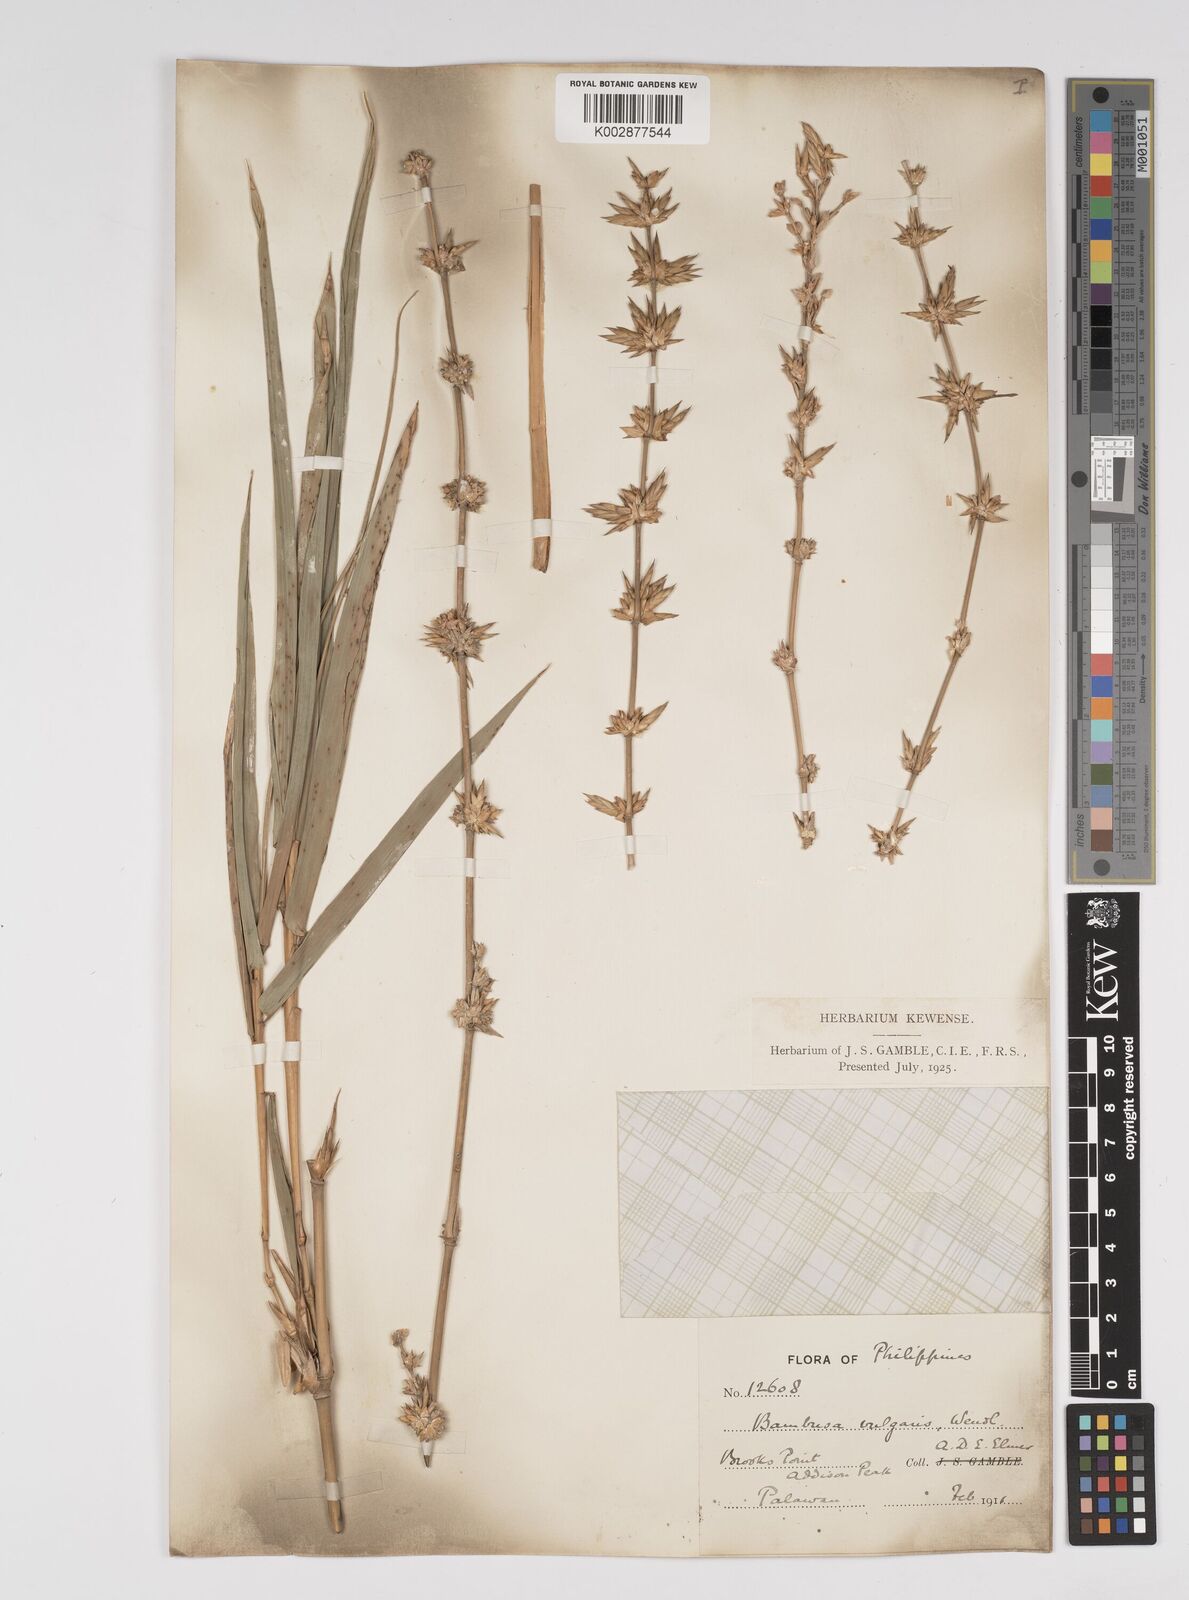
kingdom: Plantae
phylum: Tracheophyta
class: Liliopsida
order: Poales
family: Poaceae
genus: Bambusa
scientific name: Bambusa vulgaris
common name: Common bamboo
